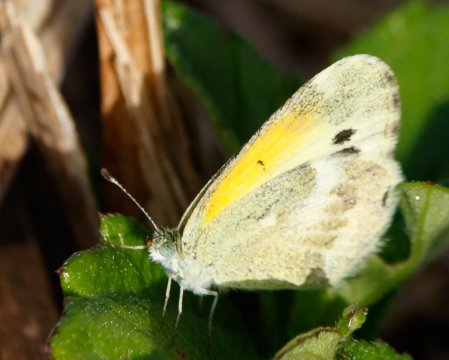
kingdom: Animalia
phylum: Arthropoda
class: Insecta
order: Lepidoptera
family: Pieridae
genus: Nathalis
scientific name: Nathalis iole
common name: Dainty Sulphur
